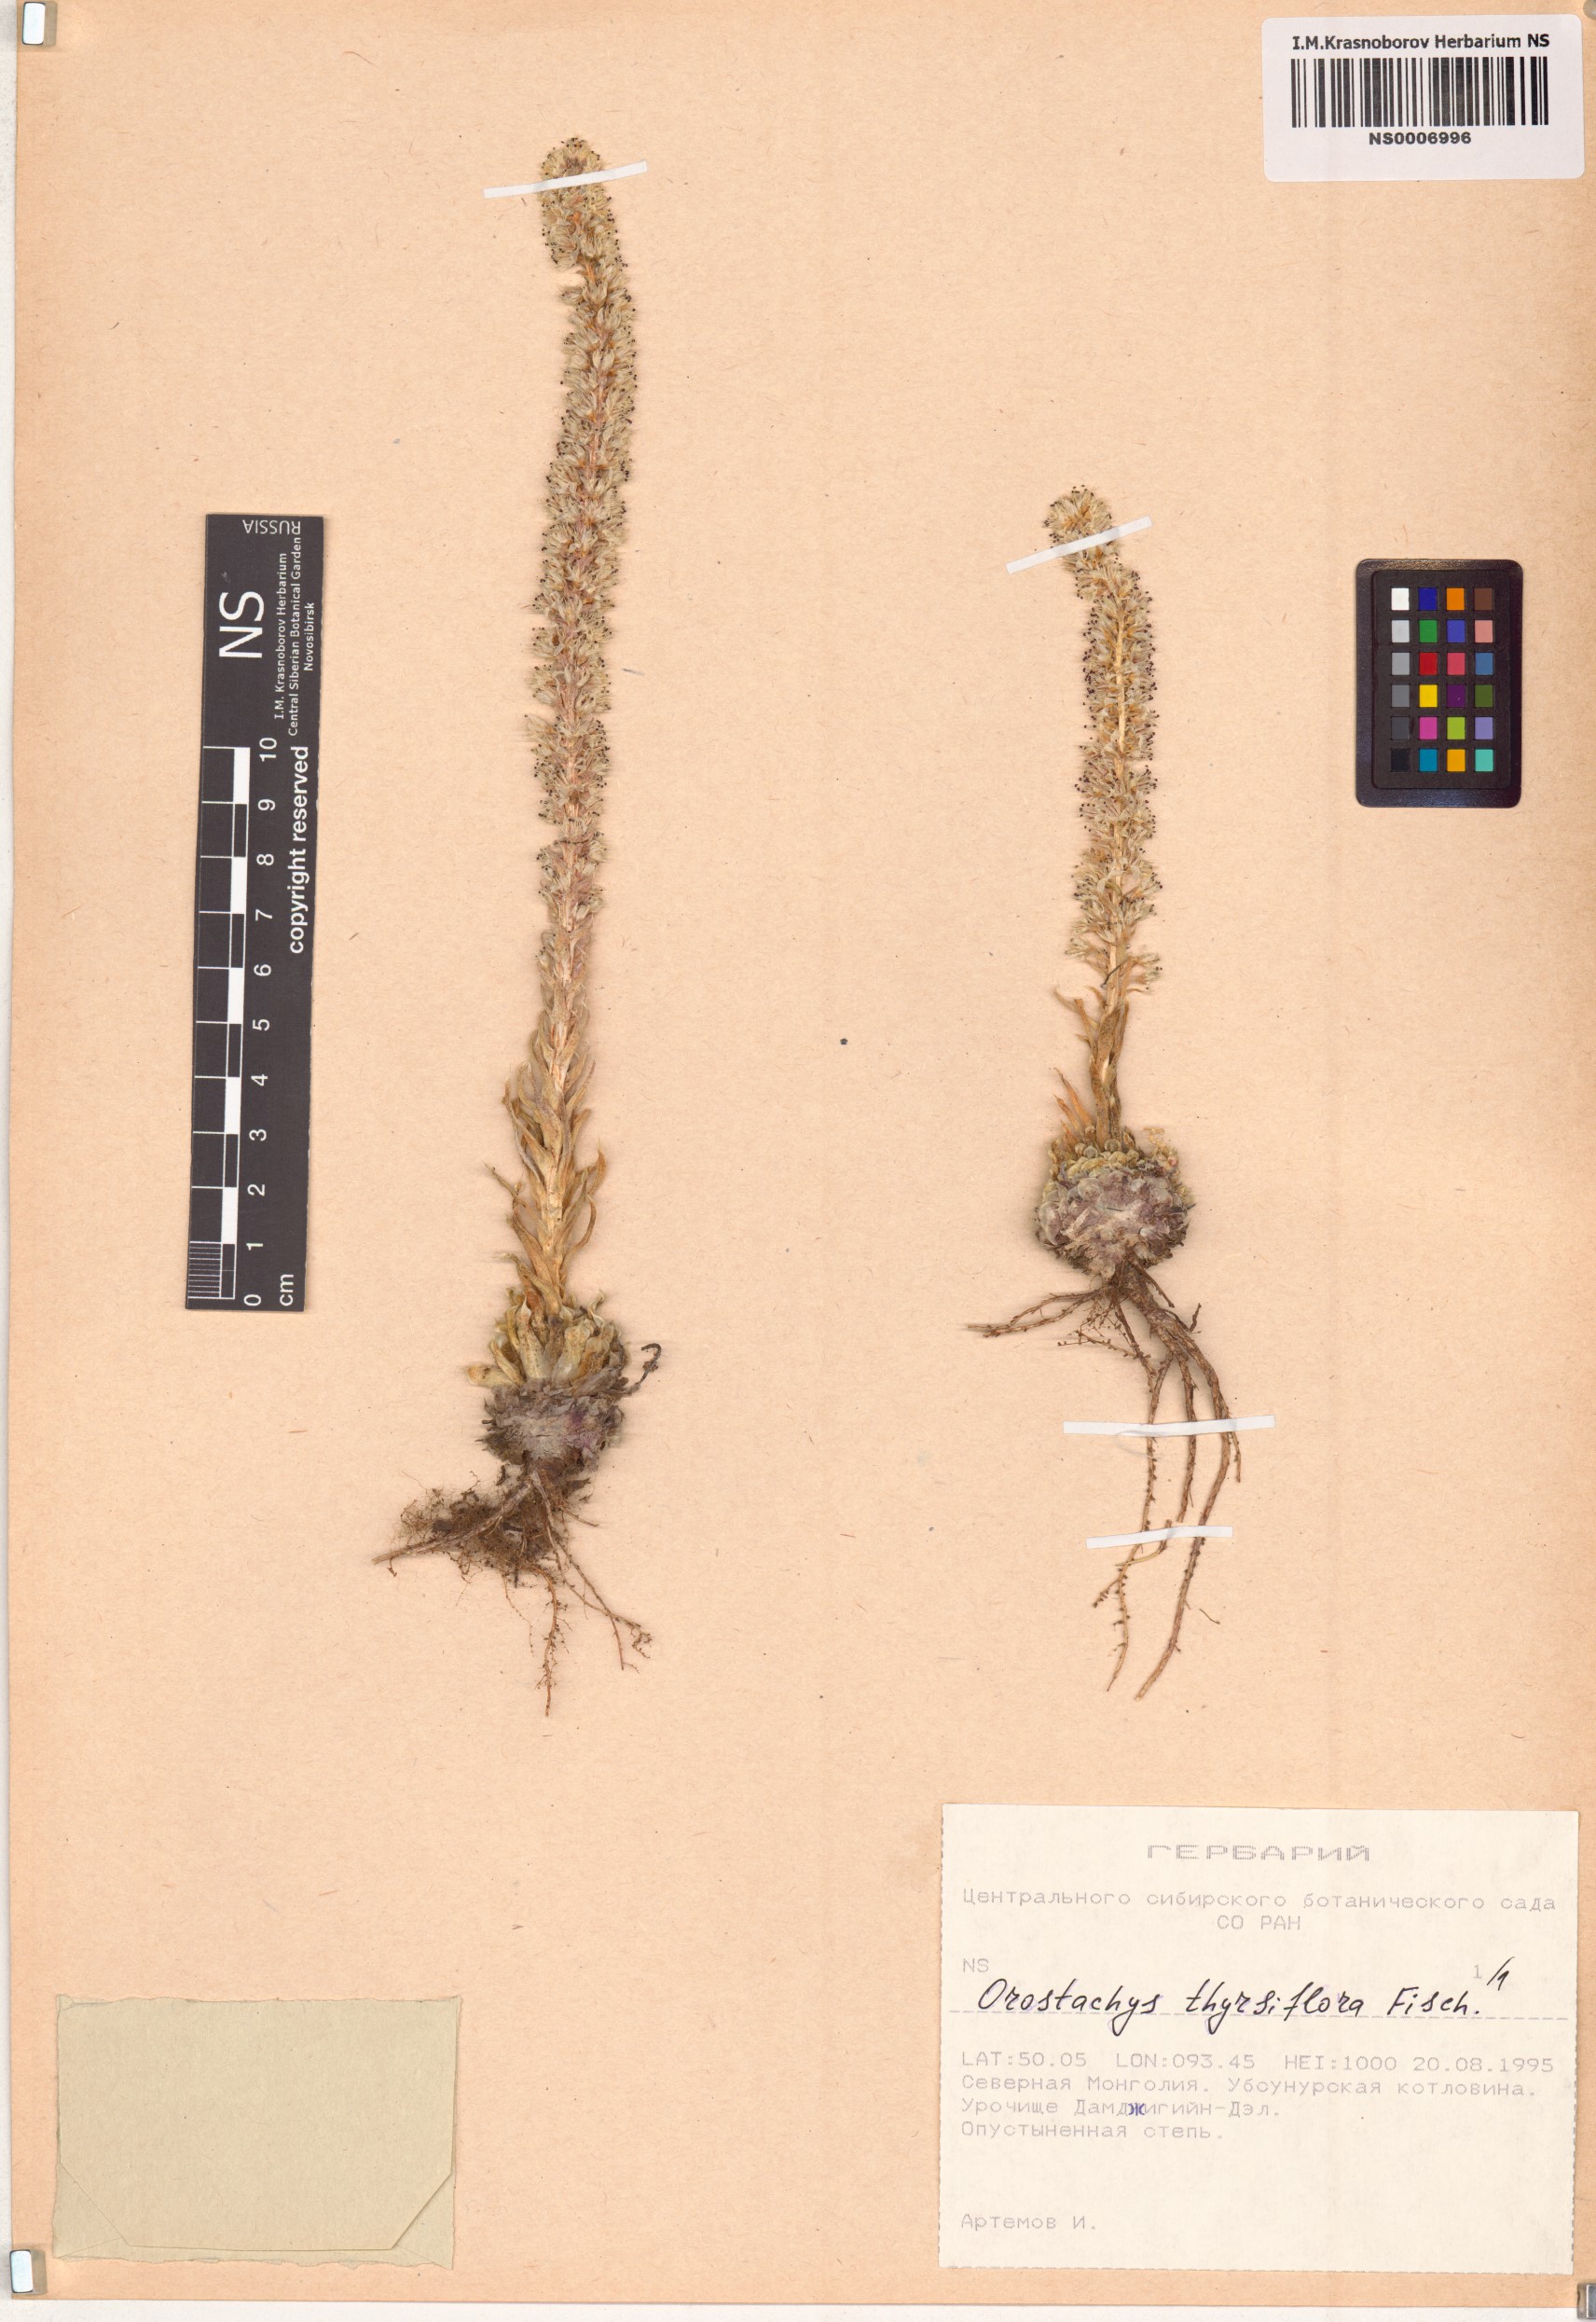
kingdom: Plantae
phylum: Tracheophyta
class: Magnoliopsida
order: Saxifragales
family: Crassulaceae
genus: Orostachys
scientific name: Orostachys thyrsiflora
